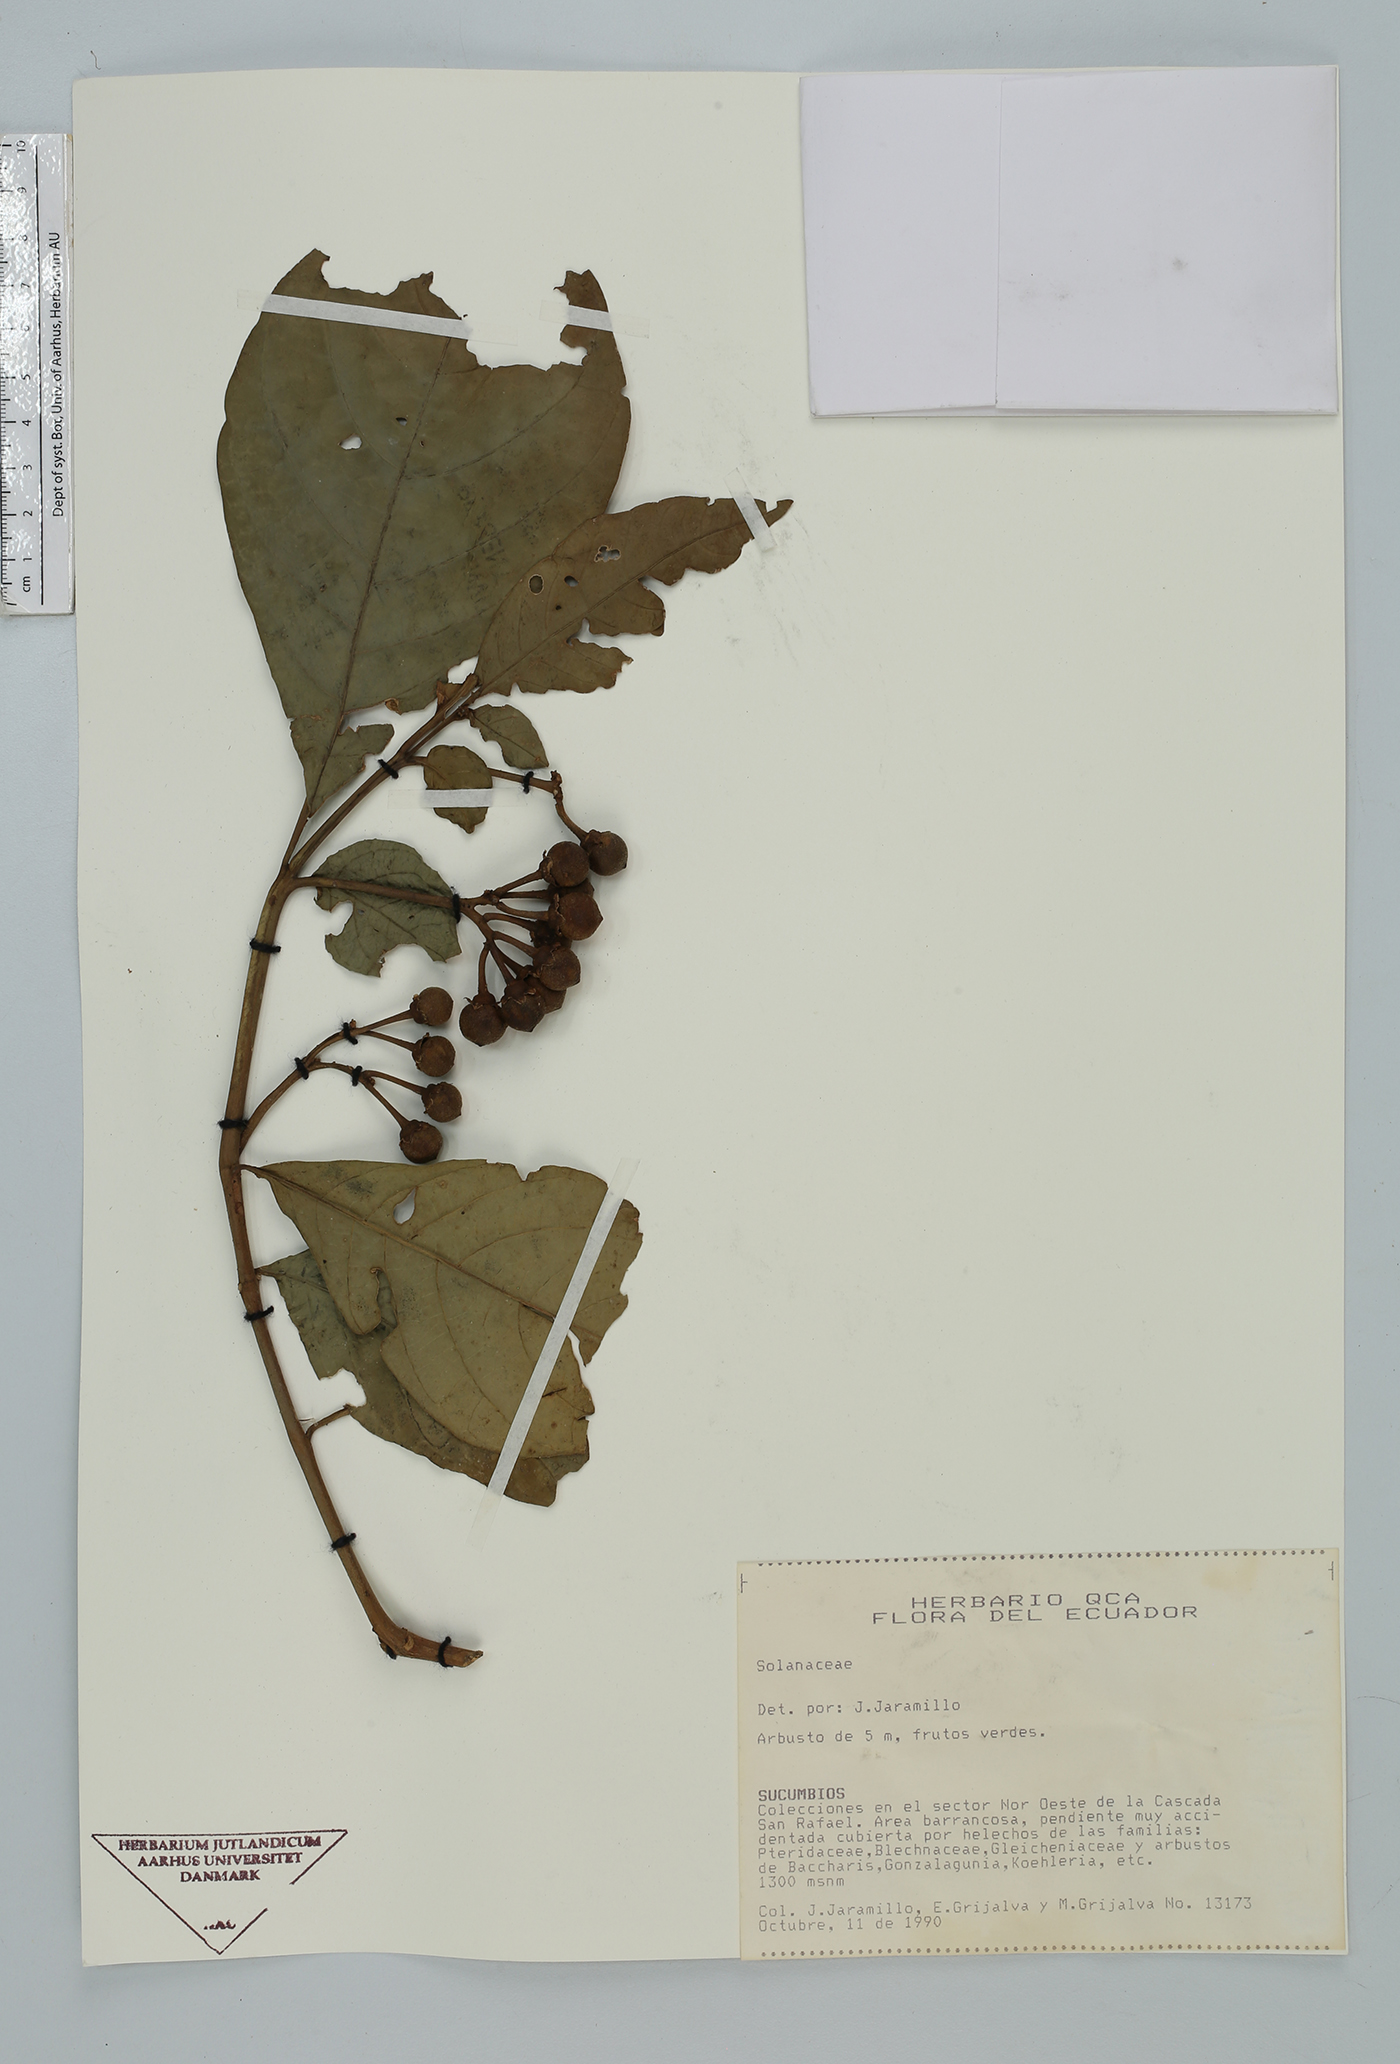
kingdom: Plantae
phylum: Tracheophyta
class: Magnoliopsida
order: Solanales
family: Solanaceae
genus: Solanum
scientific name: Solanum
